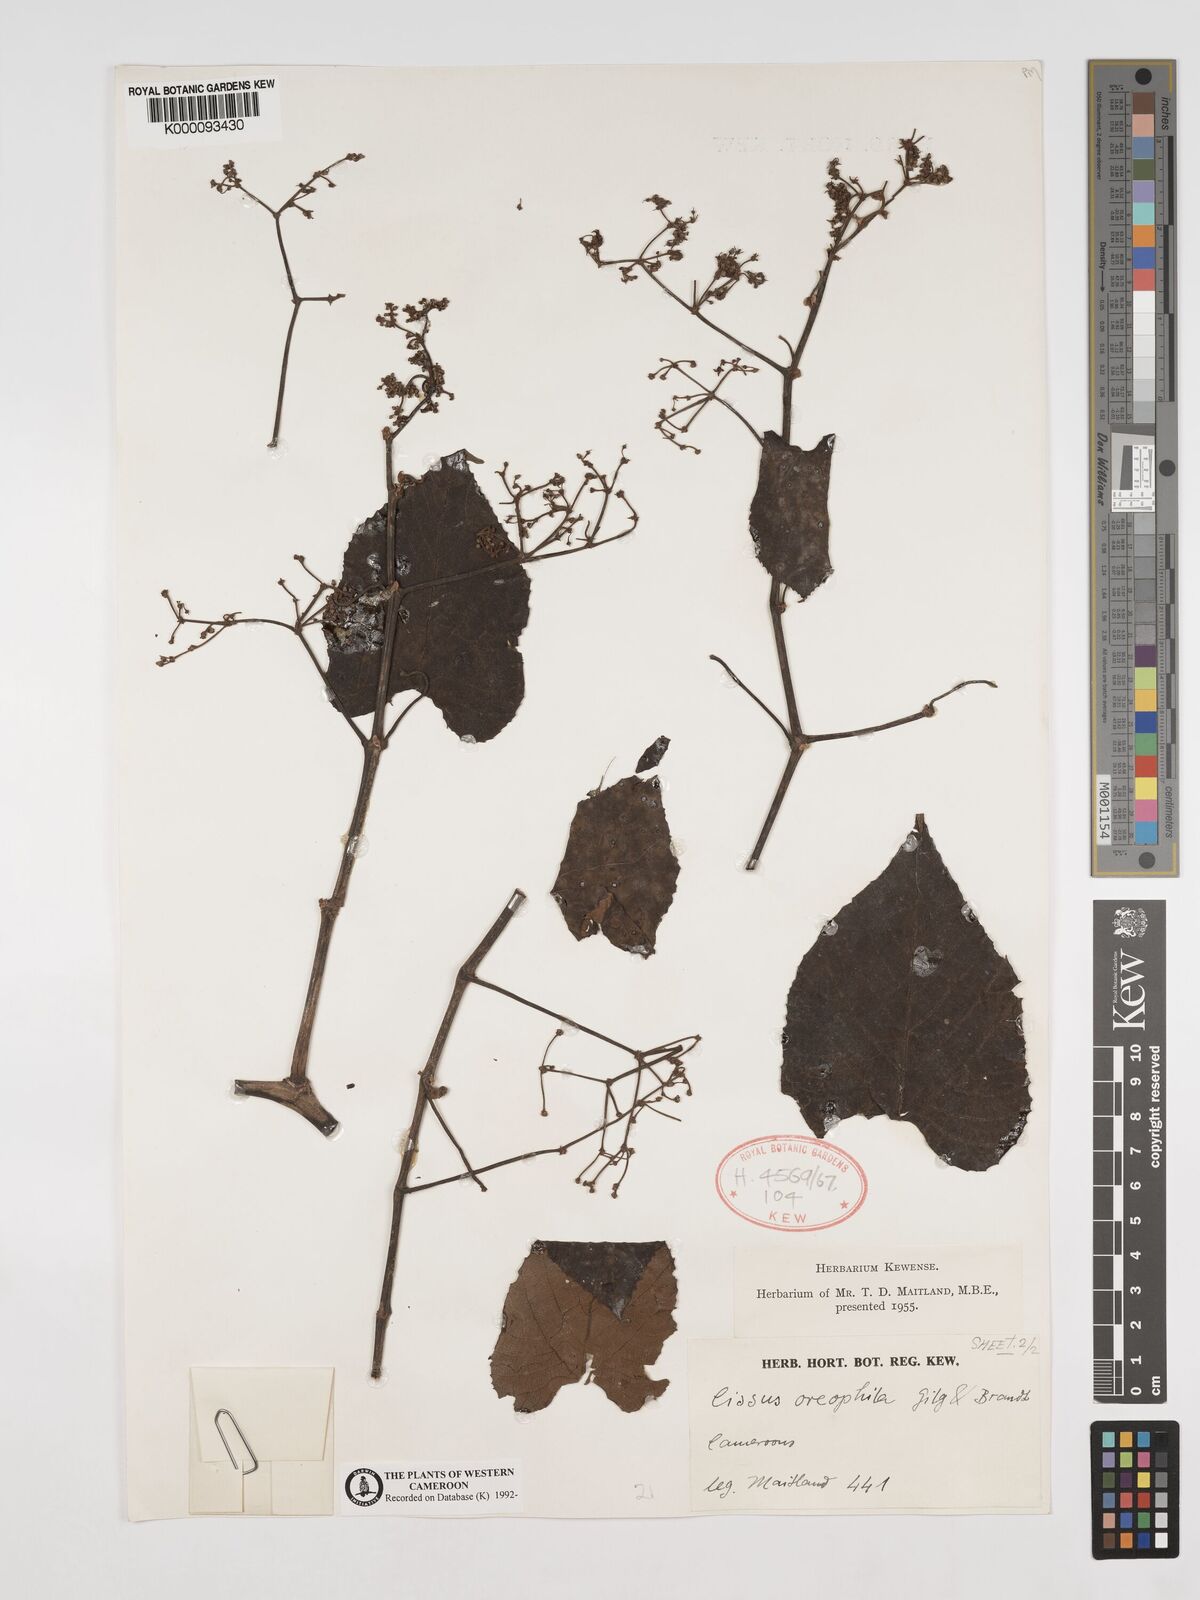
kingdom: Plantae
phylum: Tracheophyta
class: Magnoliopsida
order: Vitales
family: Vitaceae
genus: Cissus
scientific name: Cissus oreophila
